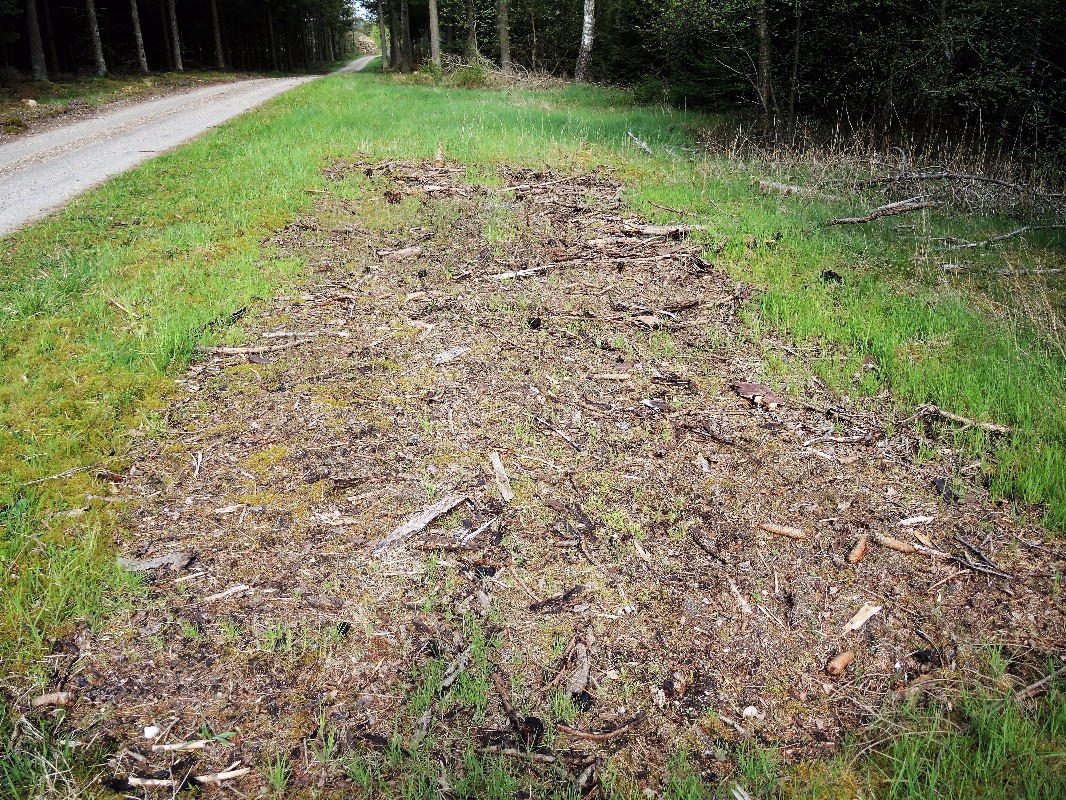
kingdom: Fungi
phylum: Ascomycota
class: Pezizomycetes
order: Pezizales
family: Discinaceae
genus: Gyromitra
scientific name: Gyromitra esculenta
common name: ægte stenmorkel
